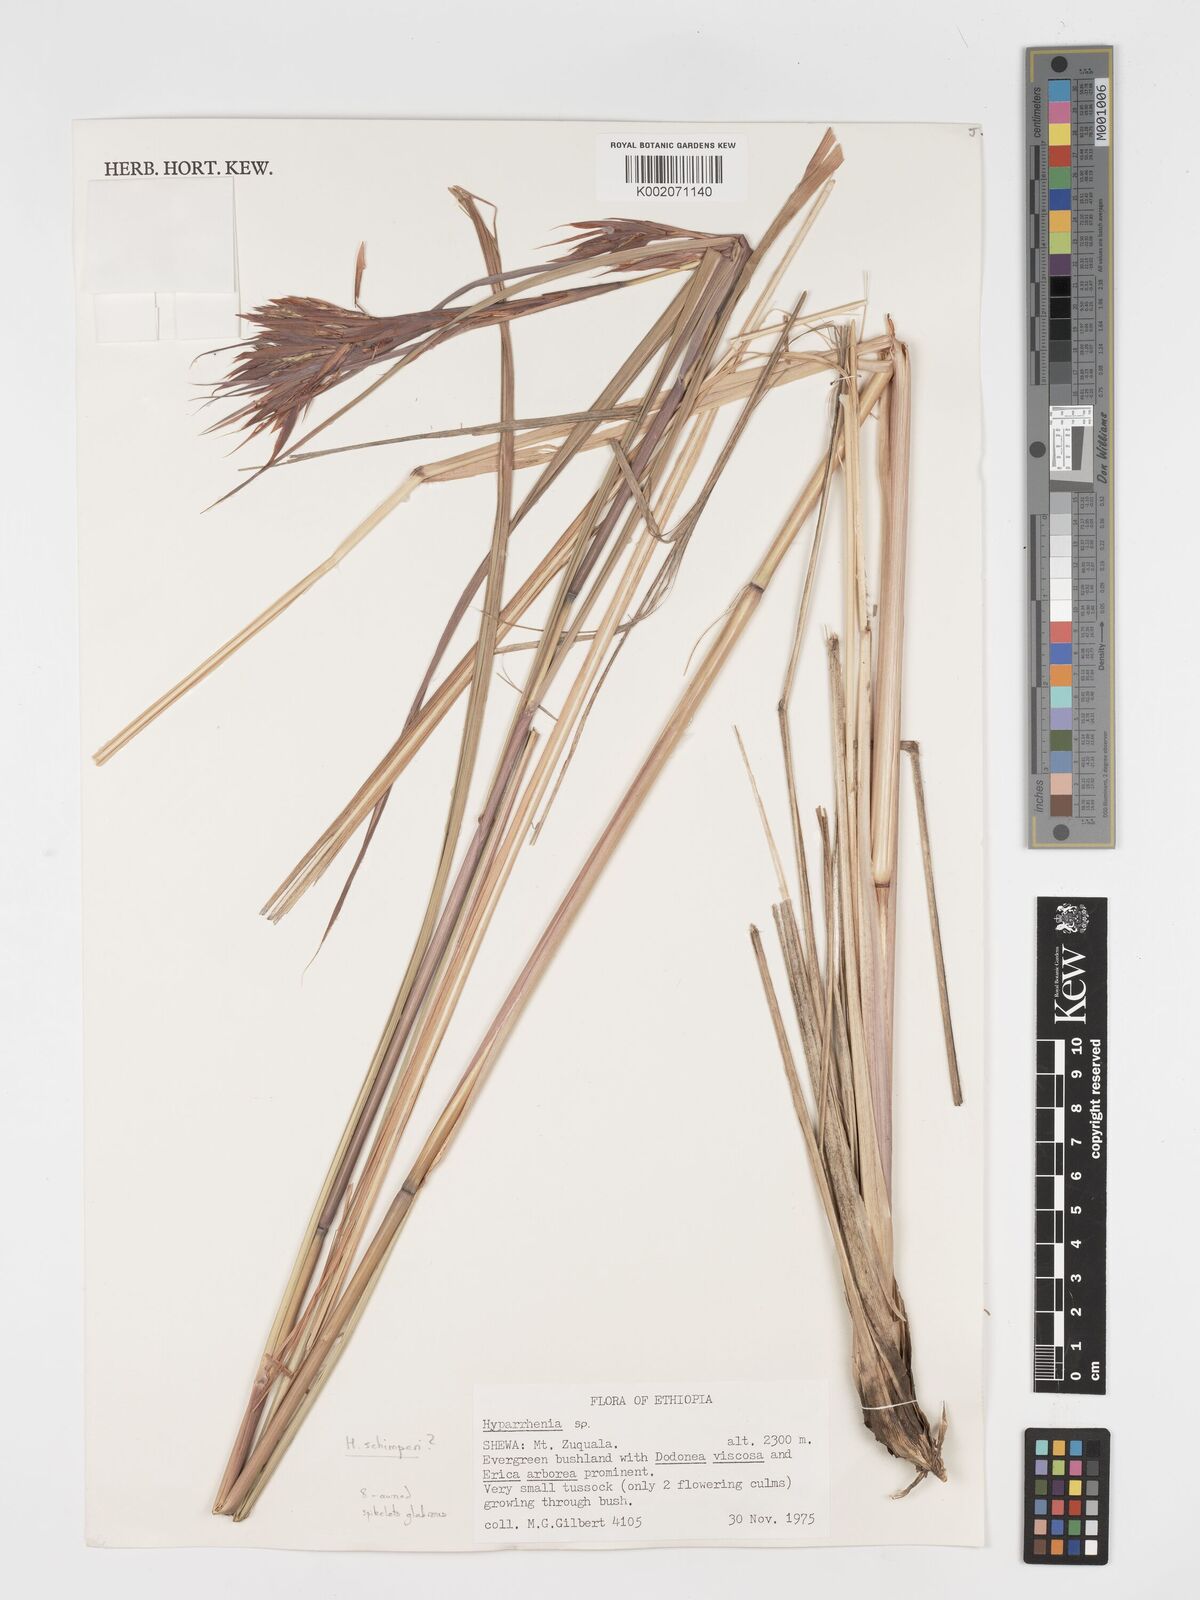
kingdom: Plantae
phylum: Tracheophyta
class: Liliopsida
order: Poales
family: Poaceae
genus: Hyparrhenia
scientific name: Hyparrhenia schimperi
